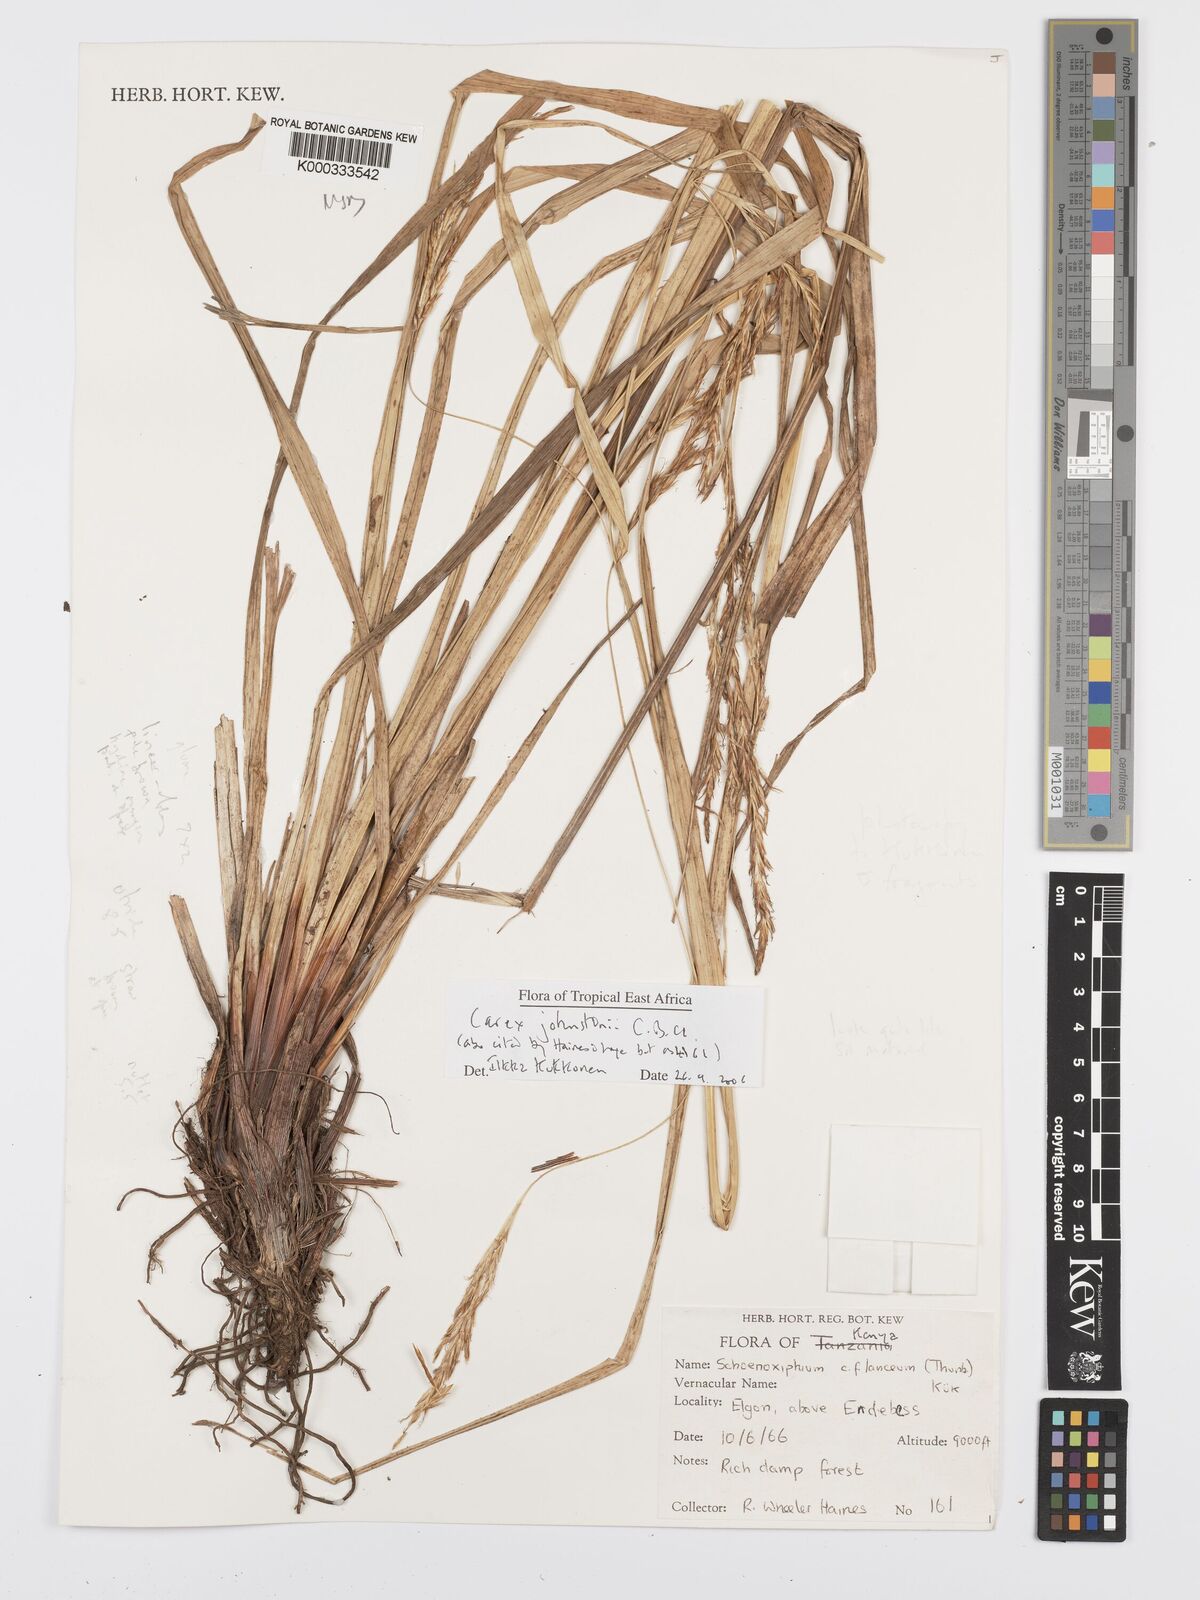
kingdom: Plantae
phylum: Tracheophyta
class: Liliopsida
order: Poales
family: Cyperaceae
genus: Carex
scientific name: Carex johnstonii
